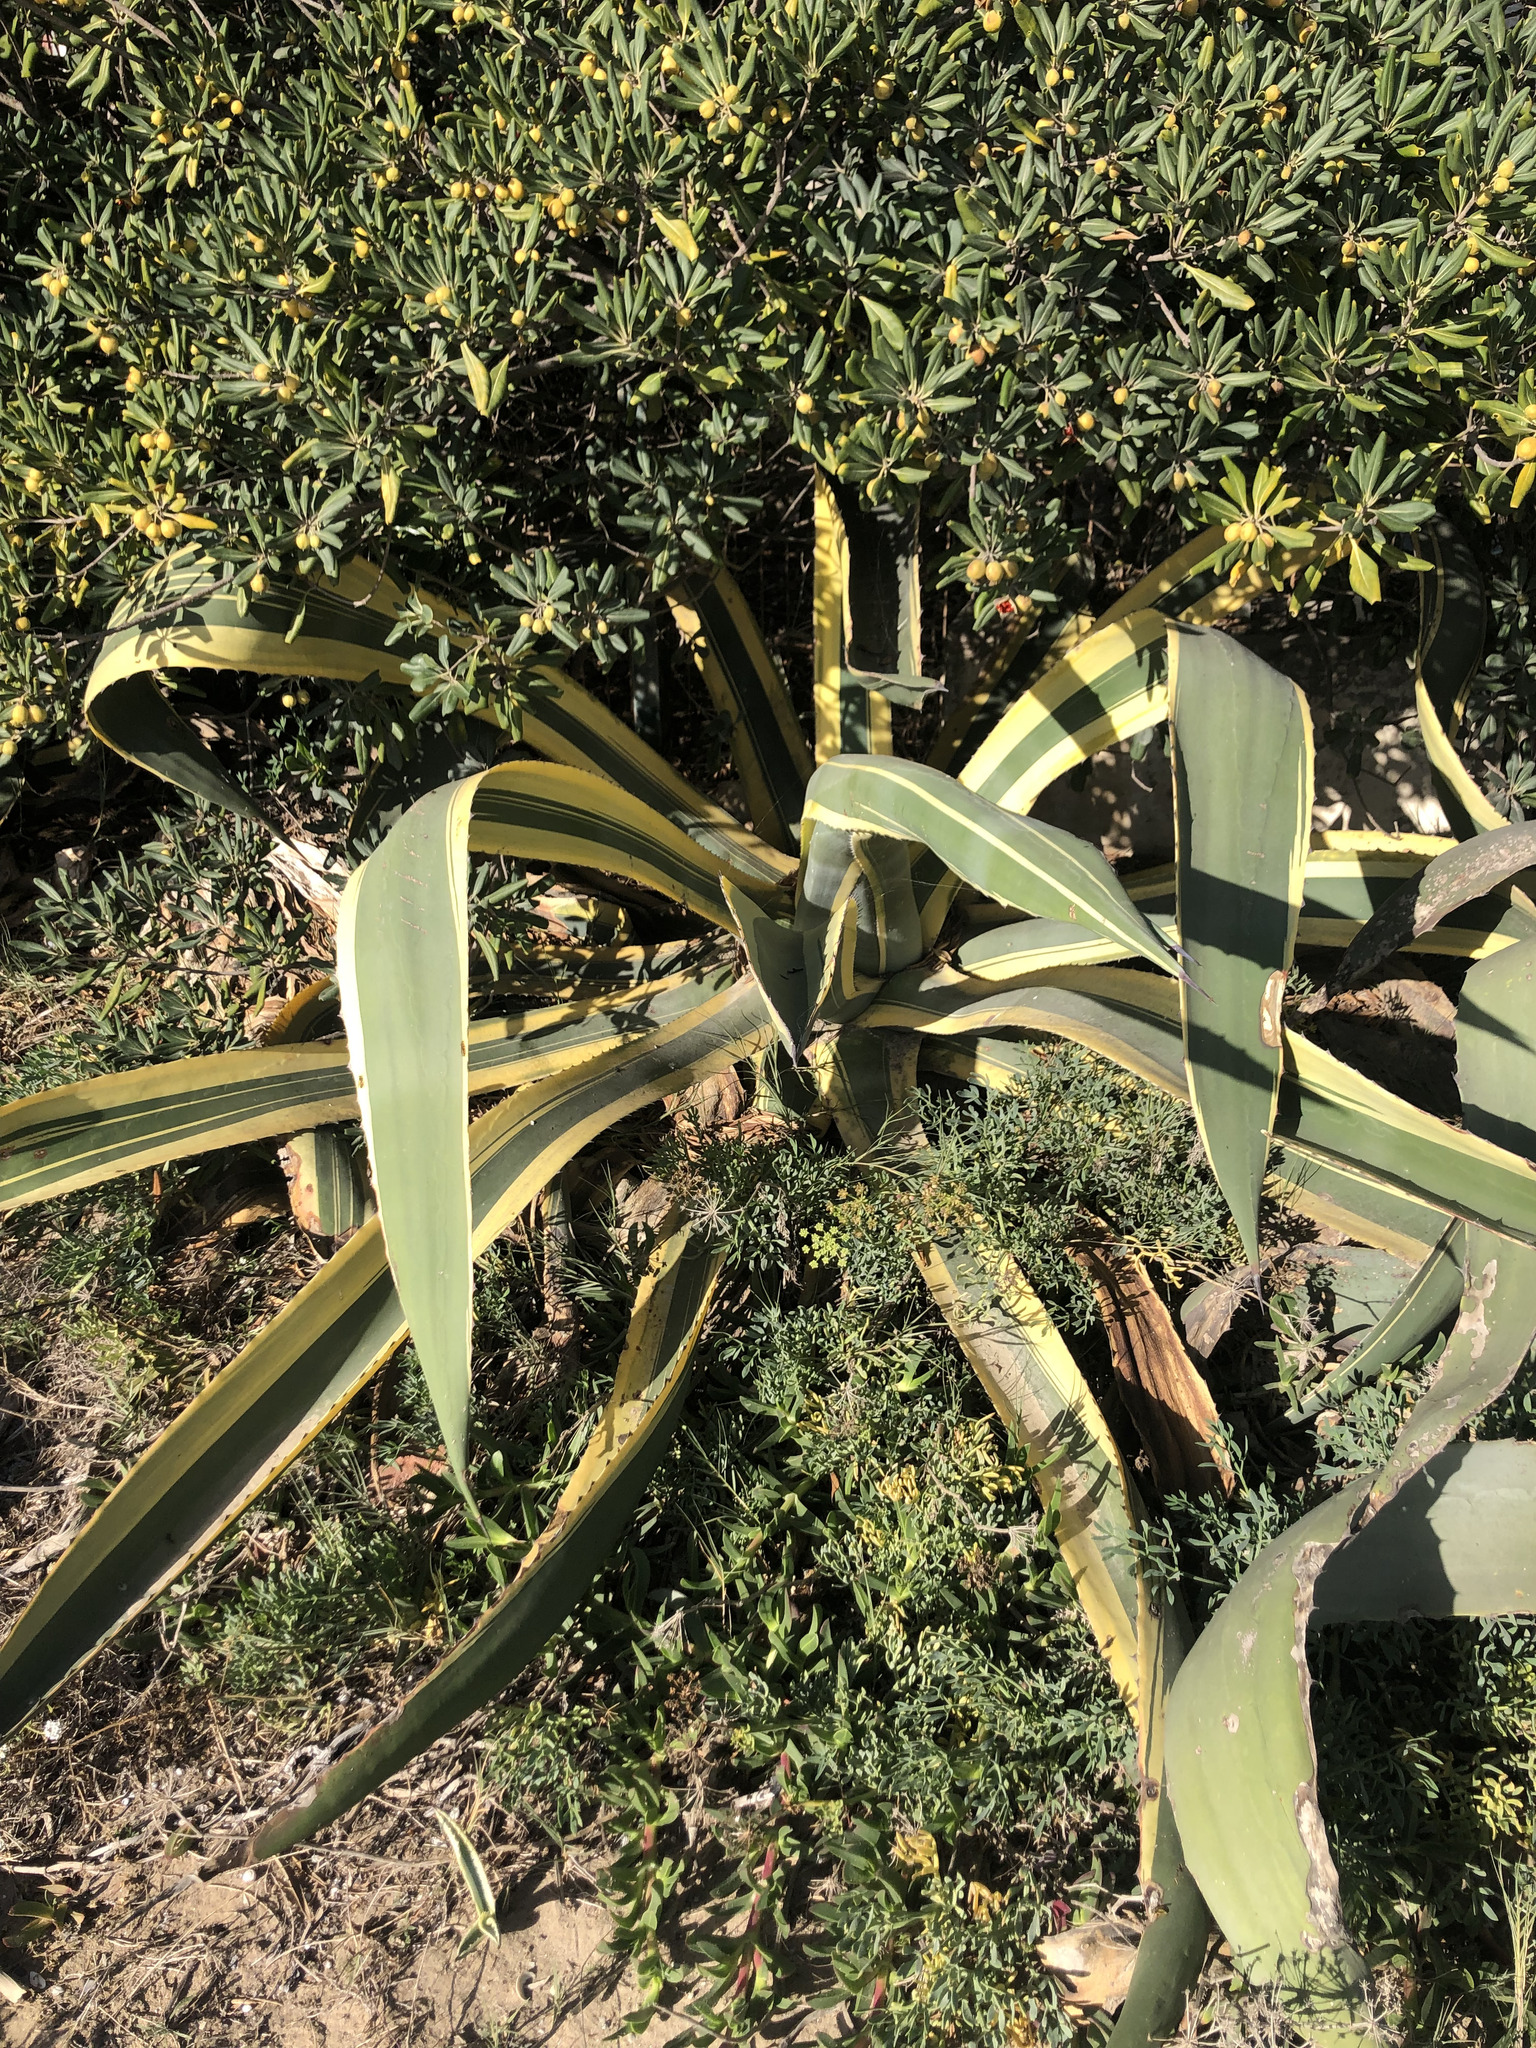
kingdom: Plantae
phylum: Tracheophyta
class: Liliopsida
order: Asparagales
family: Asparagaceae
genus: Agave
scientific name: Agave americana
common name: Centuryplant
